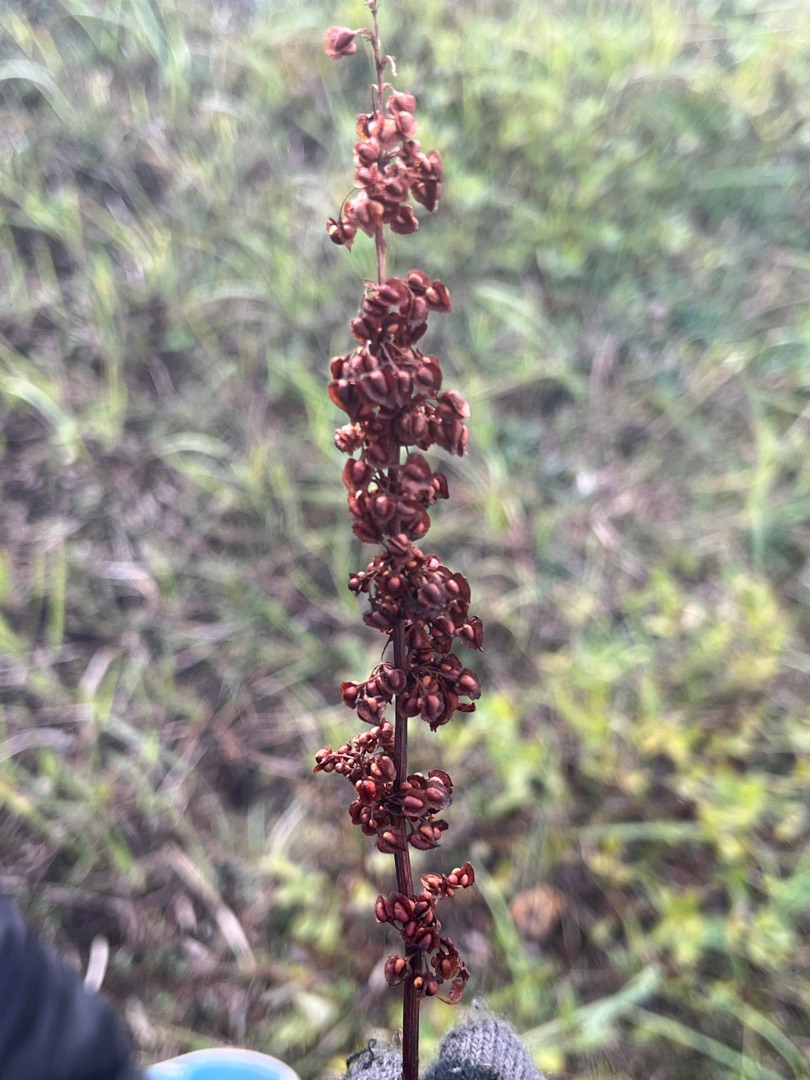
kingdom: Plantae
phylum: Tracheophyta
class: Magnoliopsida
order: Caryophyllales
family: Polygonaceae
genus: Rumex
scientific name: Rumex crispus
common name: Kruset skræppe
